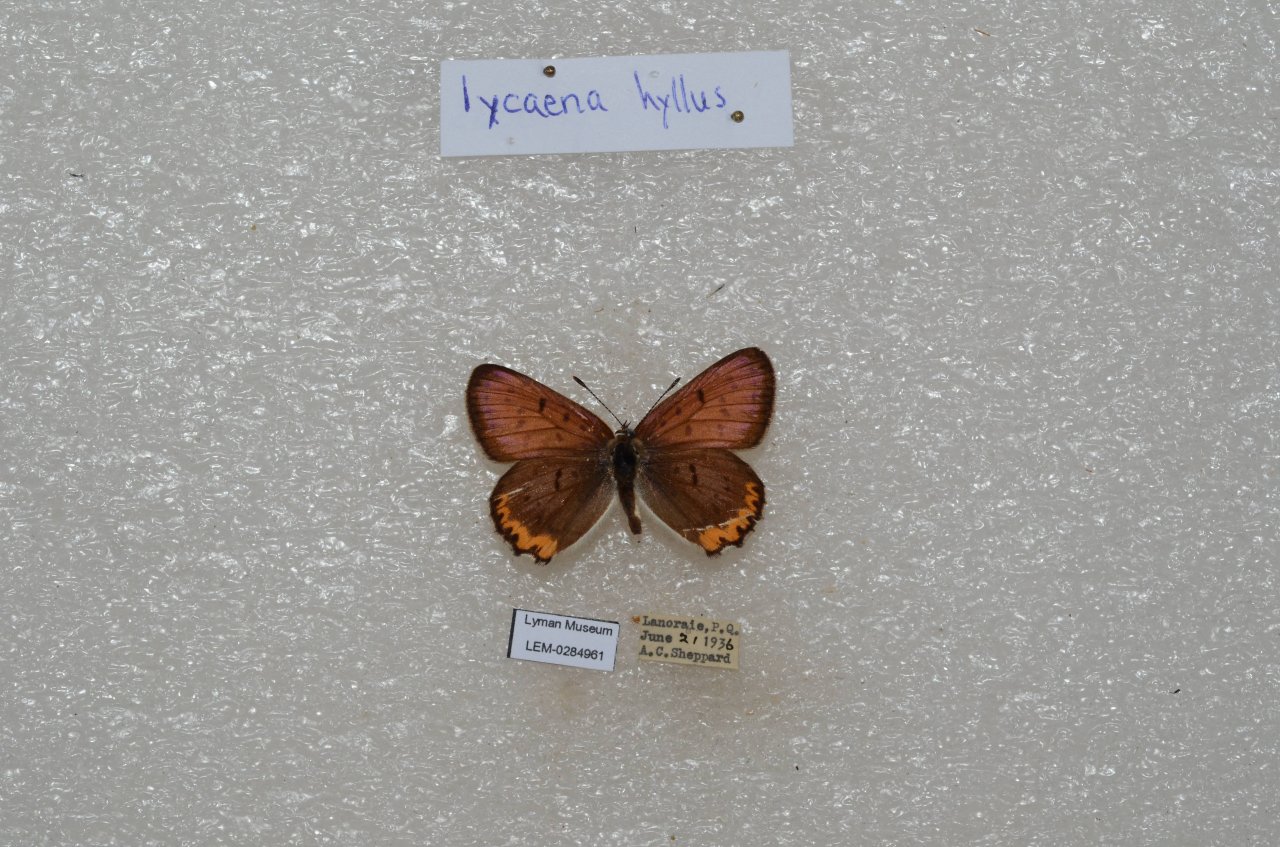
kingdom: Animalia
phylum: Arthropoda
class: Insecta
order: Lepidoptera
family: Sesiidae
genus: Sesia
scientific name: Sesia Lycaena hyllus
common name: Bronze Copper
